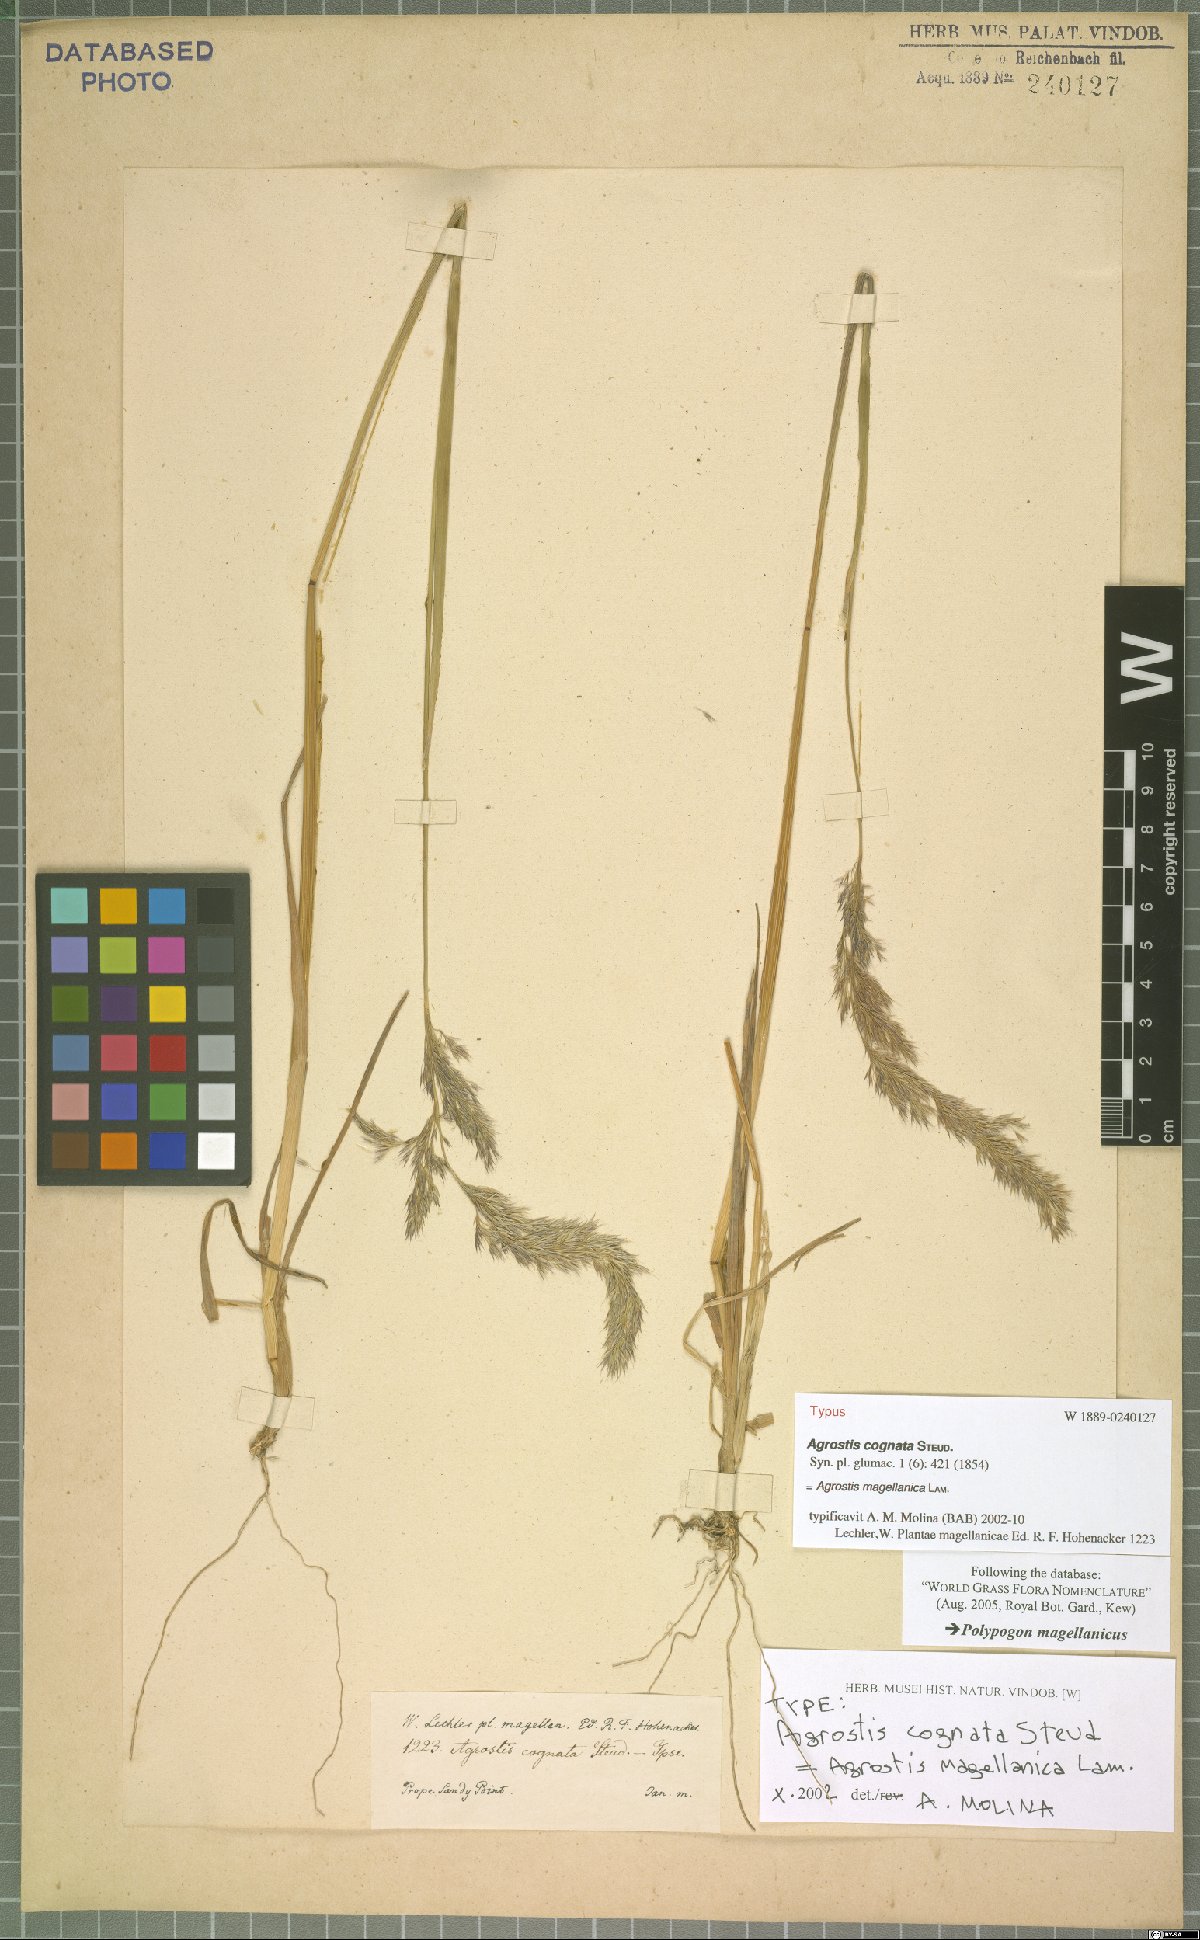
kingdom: Plantae
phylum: Tracheophyta
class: Liliopsida
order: Poales
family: Poaceae
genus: Polypogon
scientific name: Polypogon magellanicus
